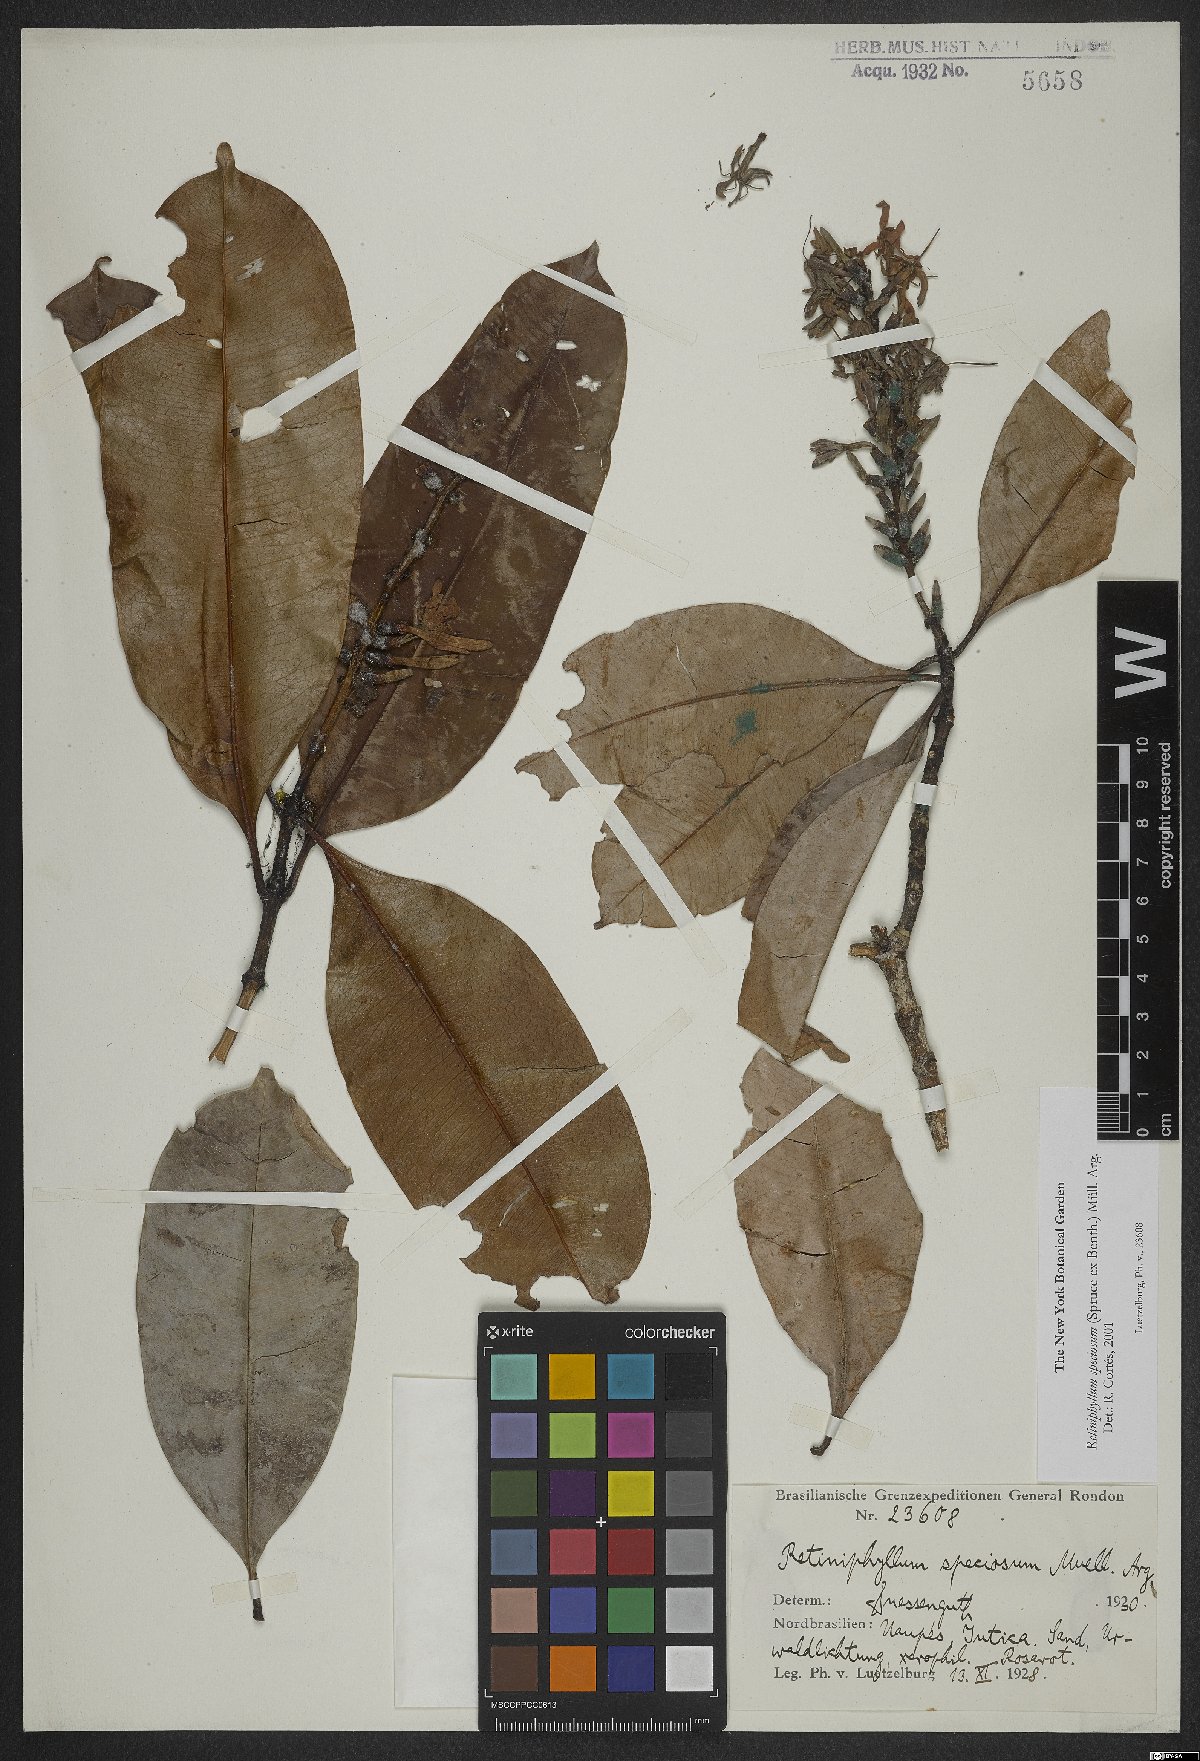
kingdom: Plantae
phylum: Tracheophyta
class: Magnoliopsida
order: Gentianales
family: Rubiaceae
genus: Retiniphyllum
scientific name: Retiniphyllum speciosum
